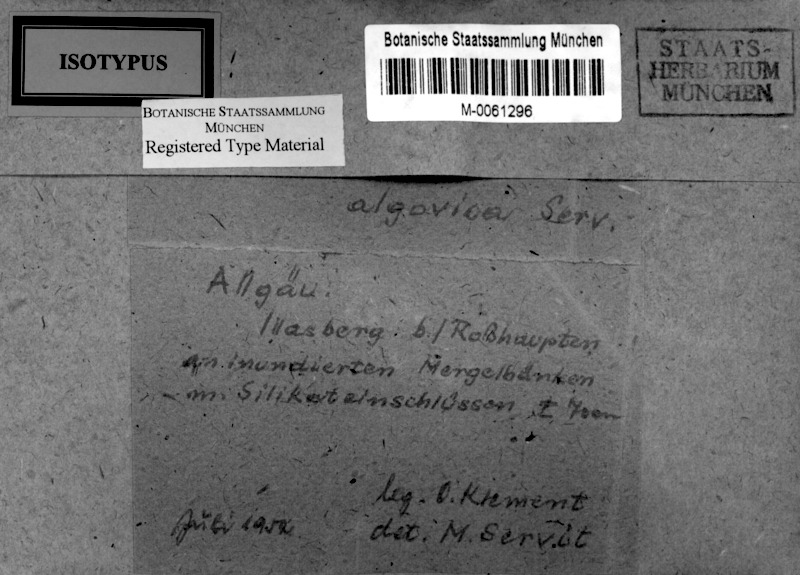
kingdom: Fungi
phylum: Ascomycota
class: Dothideomycetes
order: Trypetheliales
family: Trypetheliaceae
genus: Arthopyrenia
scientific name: Arthopyrenia algovica
